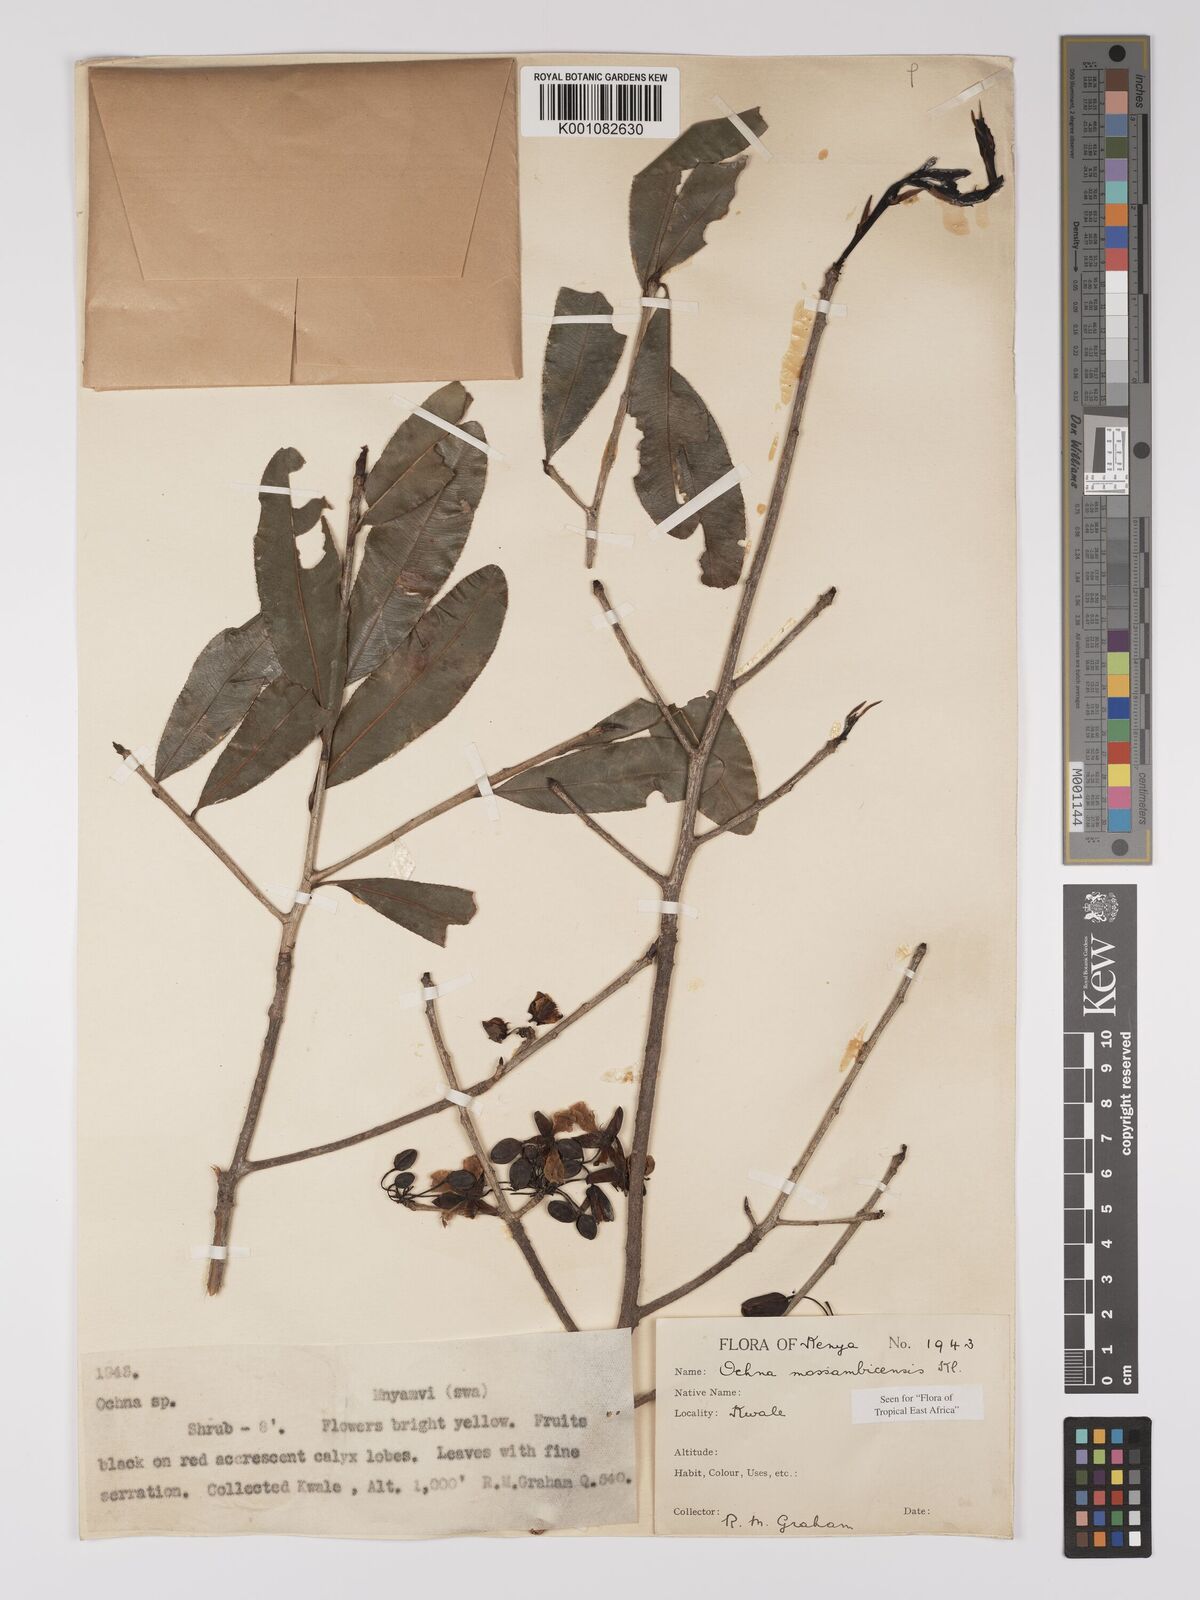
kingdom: Plantae
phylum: Tracheophyta
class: Magnoliopsida
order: Malpighiales
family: Ochnaceae
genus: Ochna
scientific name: Ochna atropurpurea
